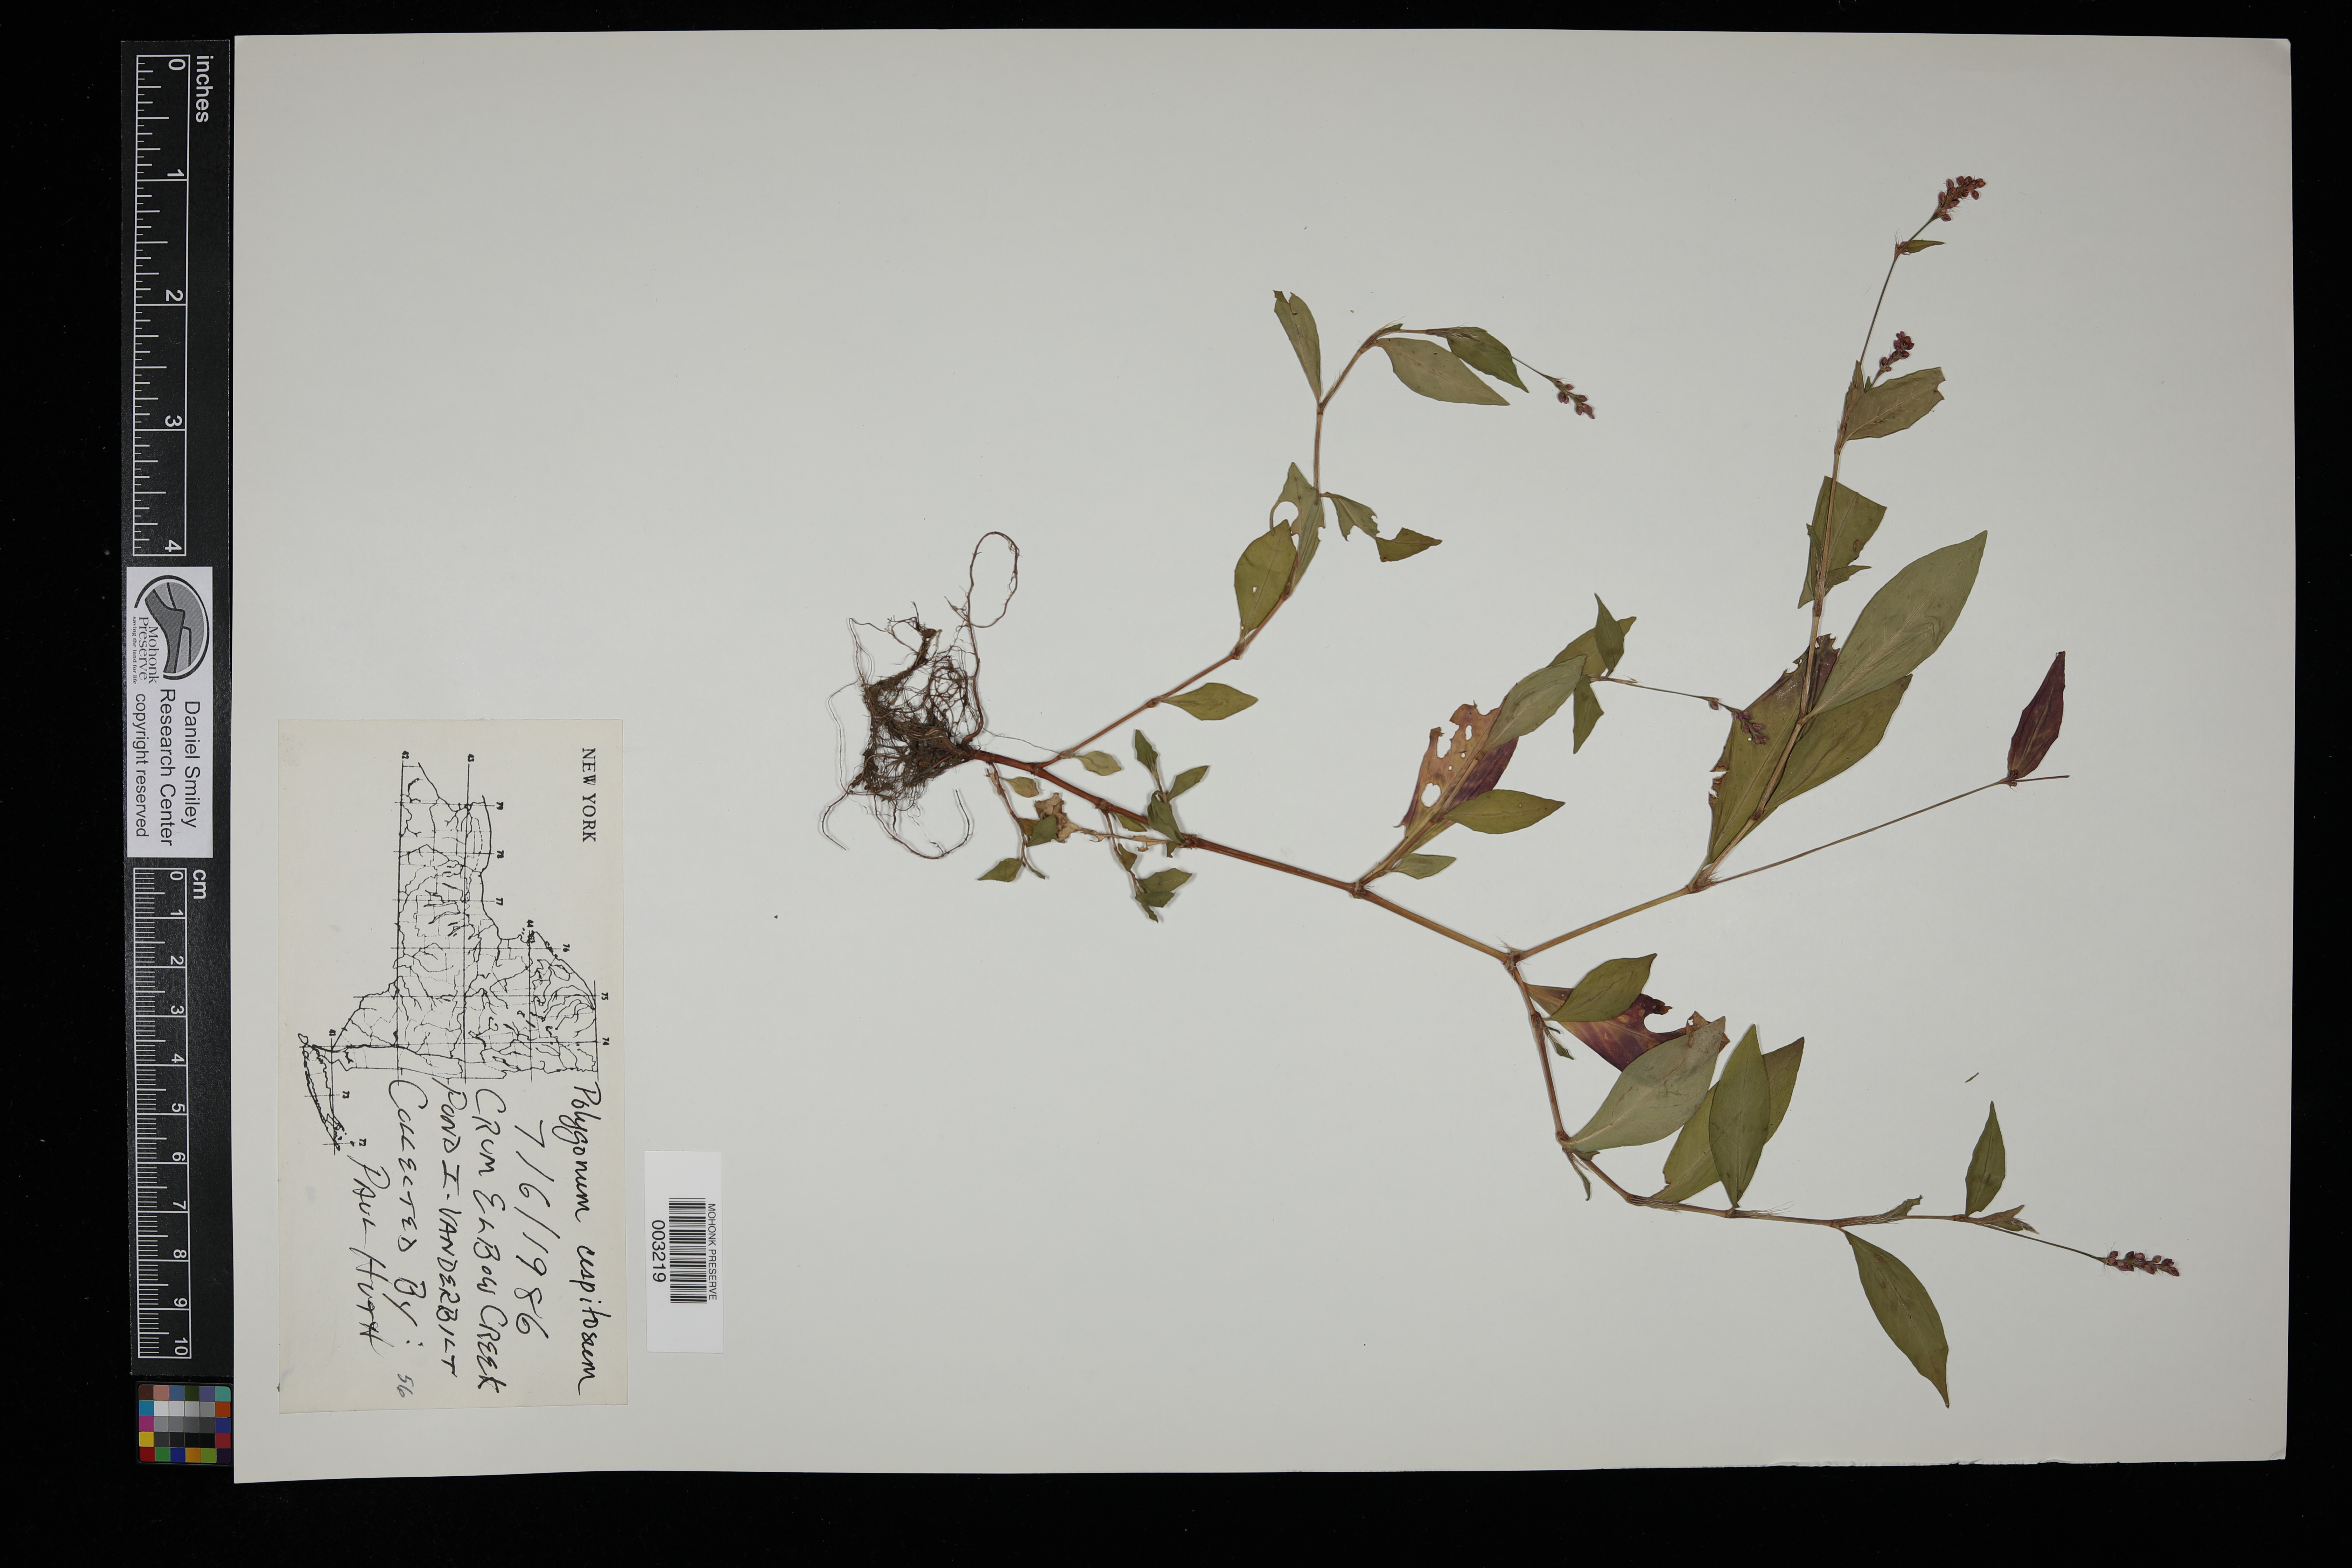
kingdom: Plantae
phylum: Tracheophyta
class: Magnoliopsida
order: Caryophyllales
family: Polygonaceae
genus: Persicaria
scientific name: Persicaria posumbu
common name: Oriental lady's thumb
